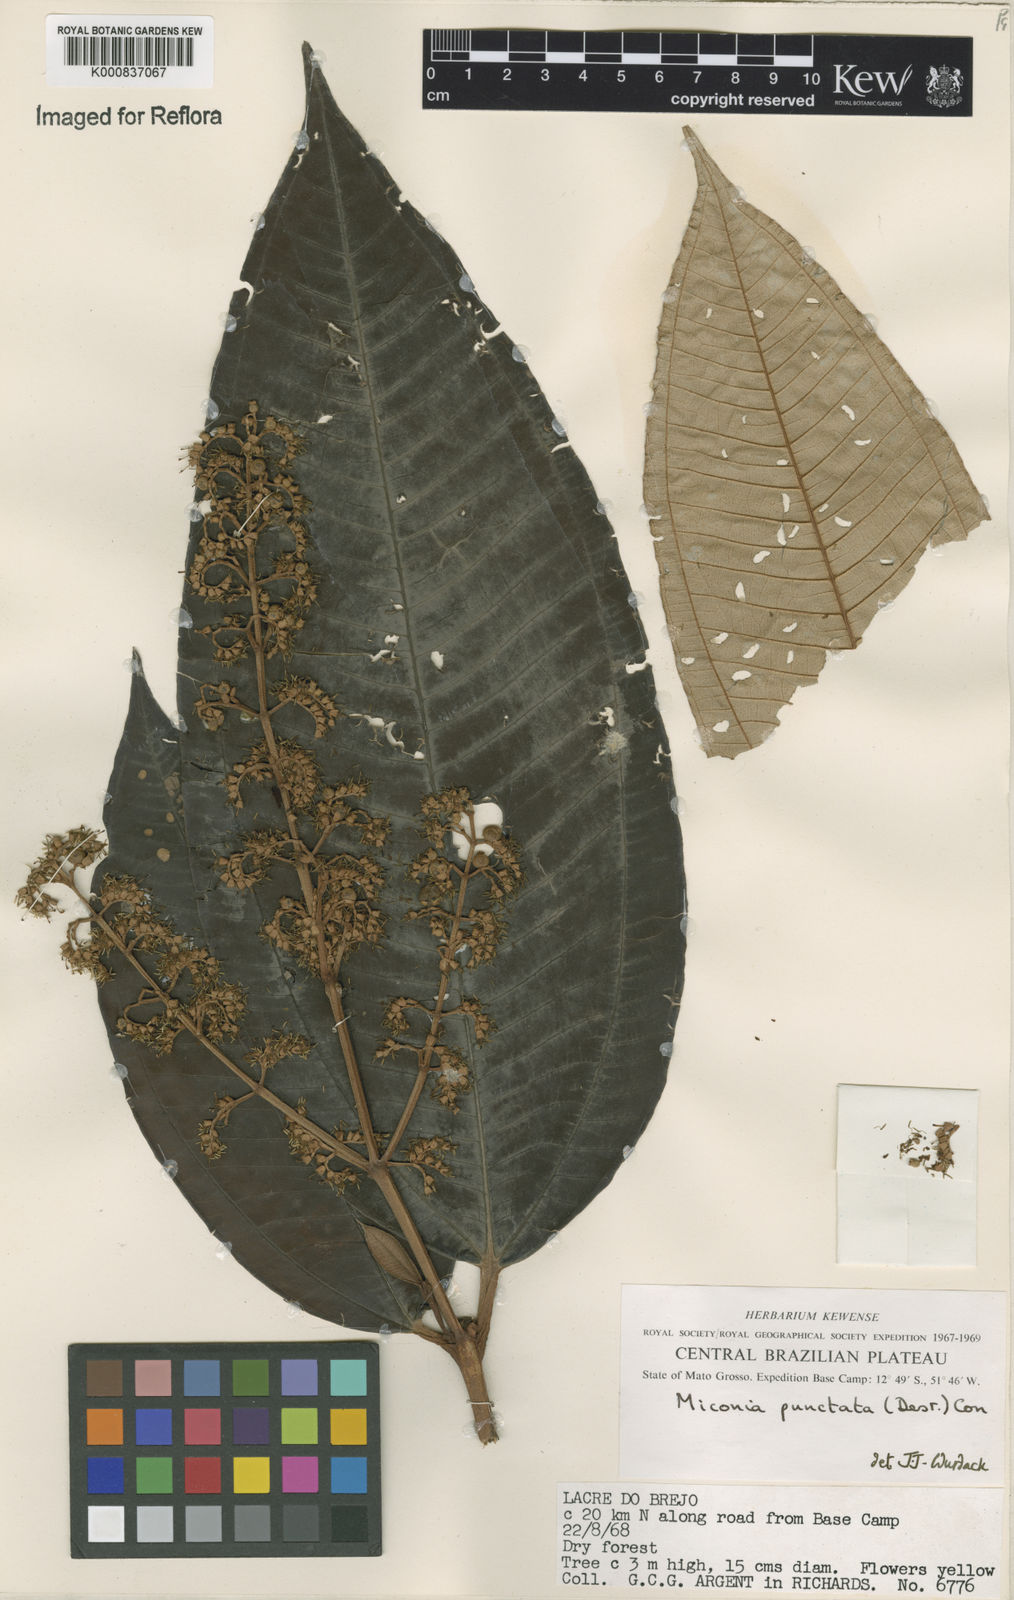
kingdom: Plantae
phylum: Tracheophyta
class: Magnoliopsida
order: Myrtales
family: Melastomataceae
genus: Miconia
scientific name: Miconia punctata
